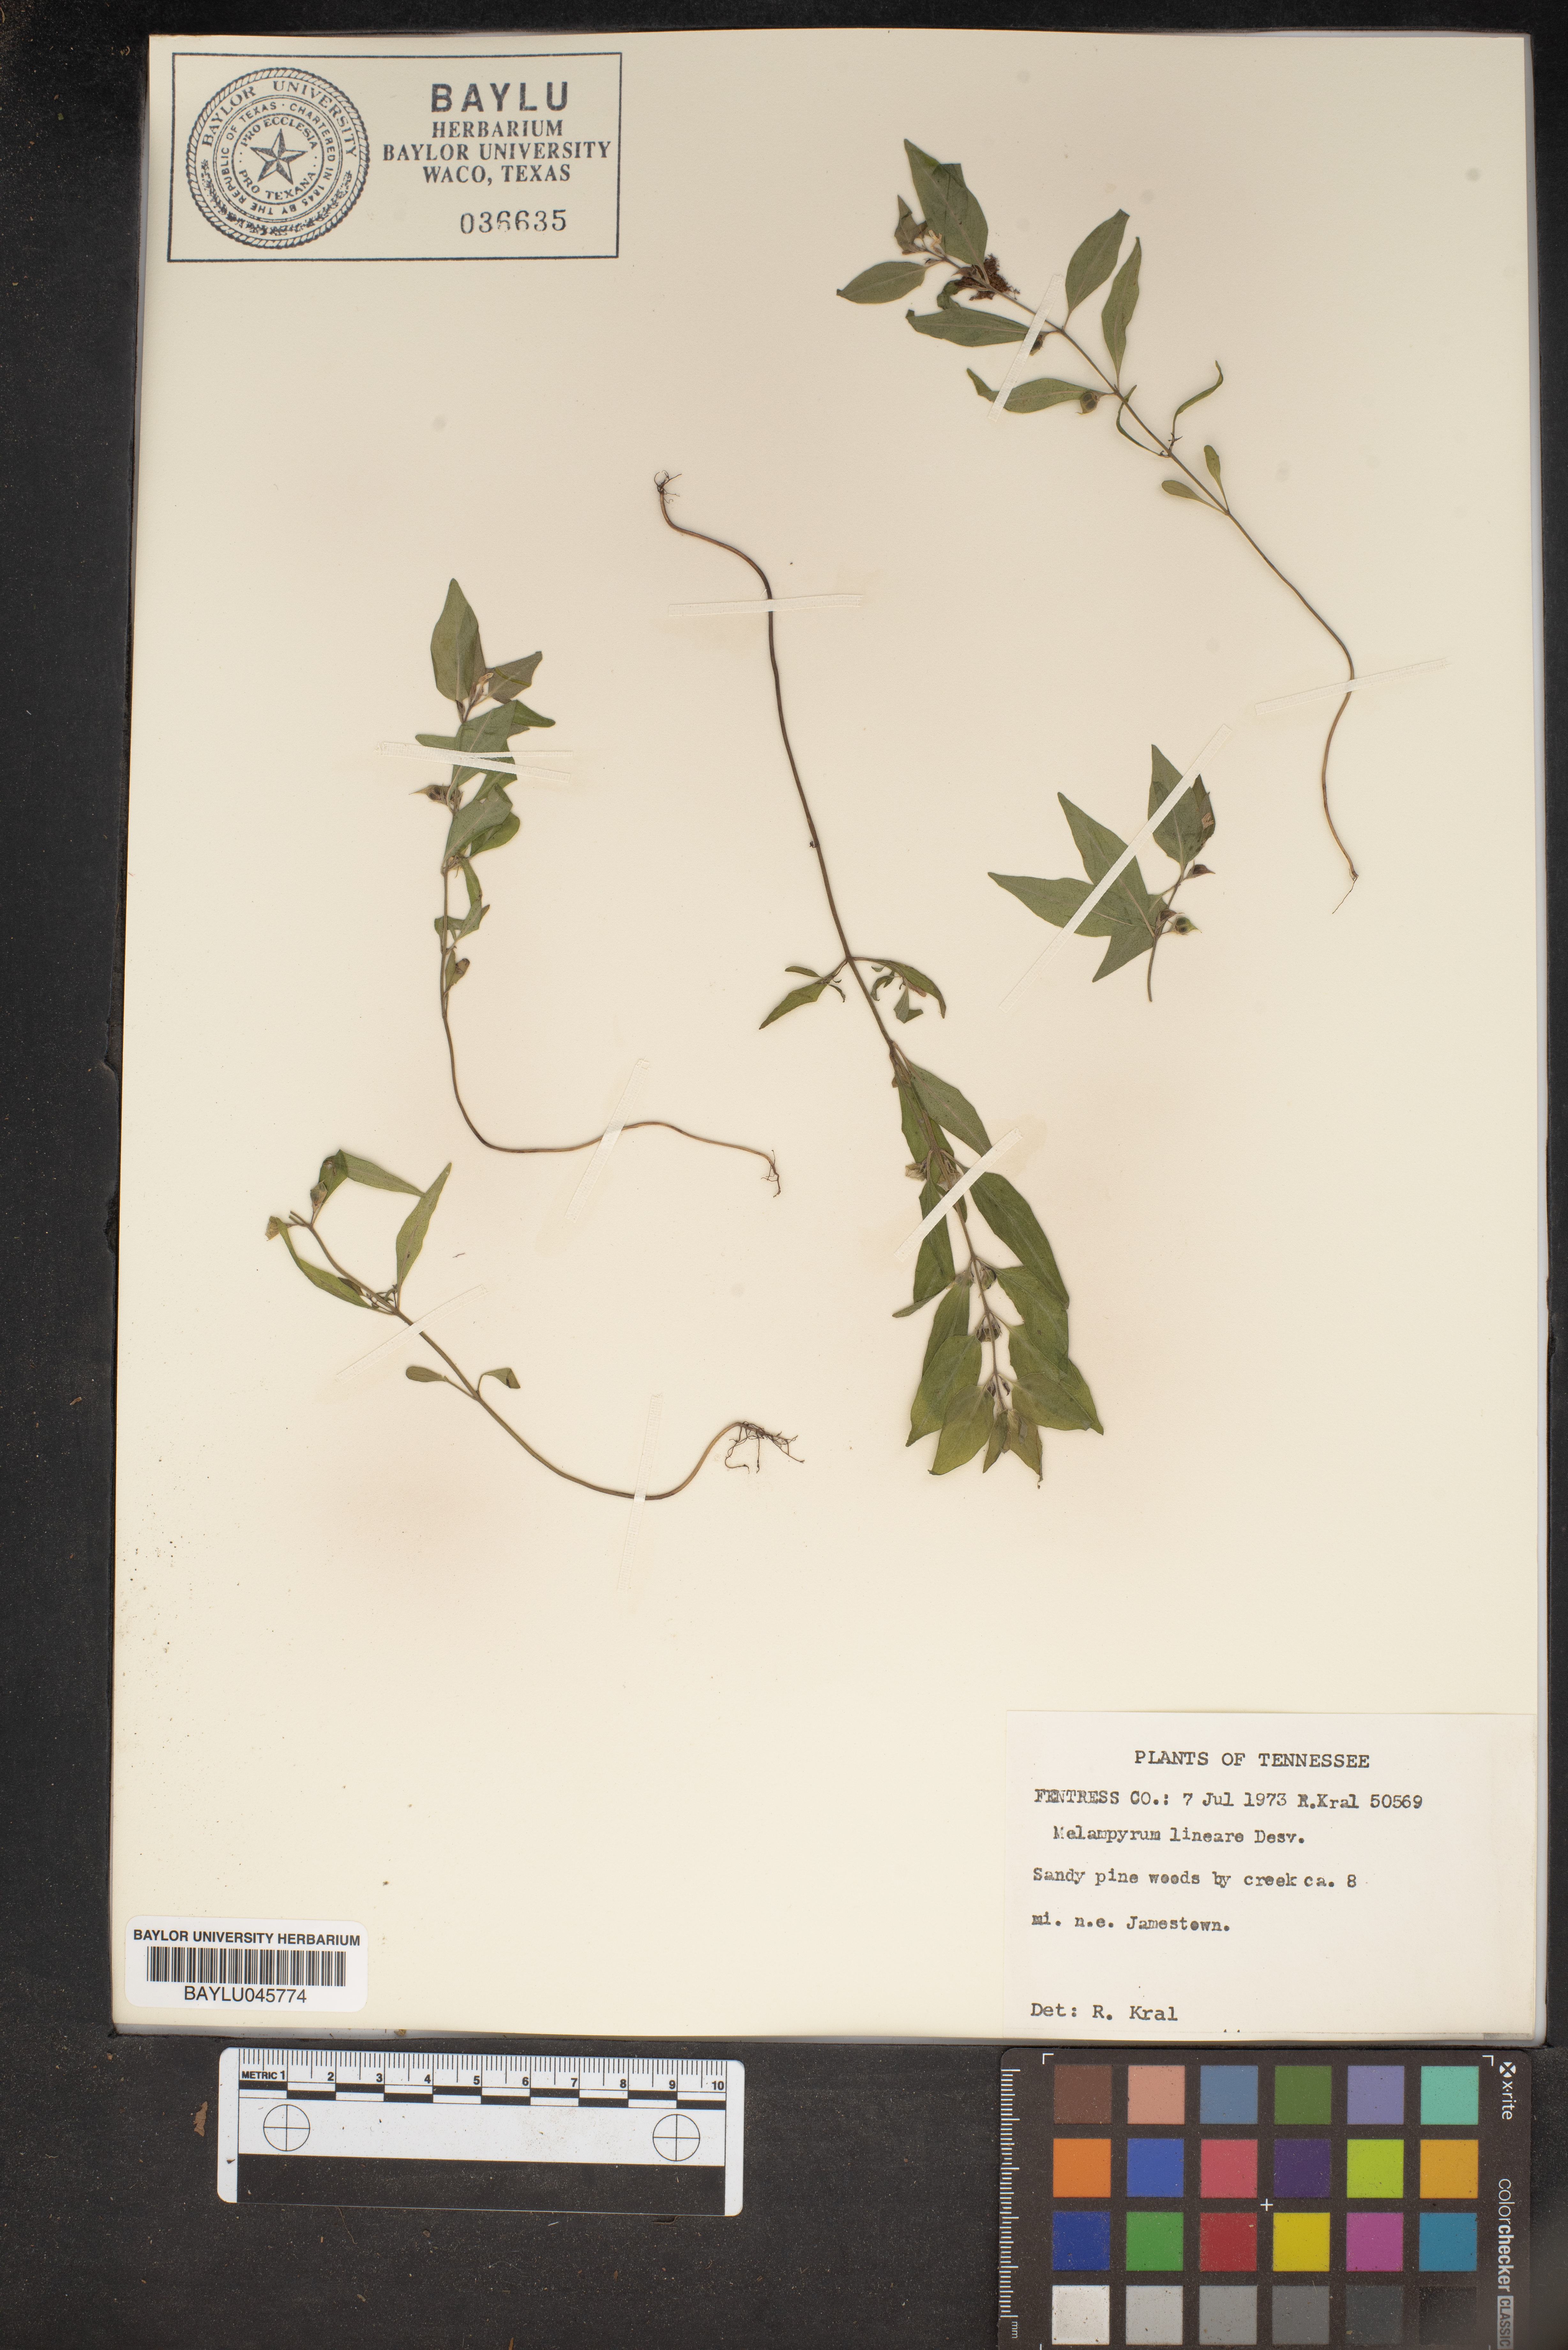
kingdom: Plantae
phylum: Tracheophyta
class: Magnoliopsida
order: Lamiales
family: Orobanchaceae
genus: Melampyrum
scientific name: Melampyrum lineare
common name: American cow-wheat
